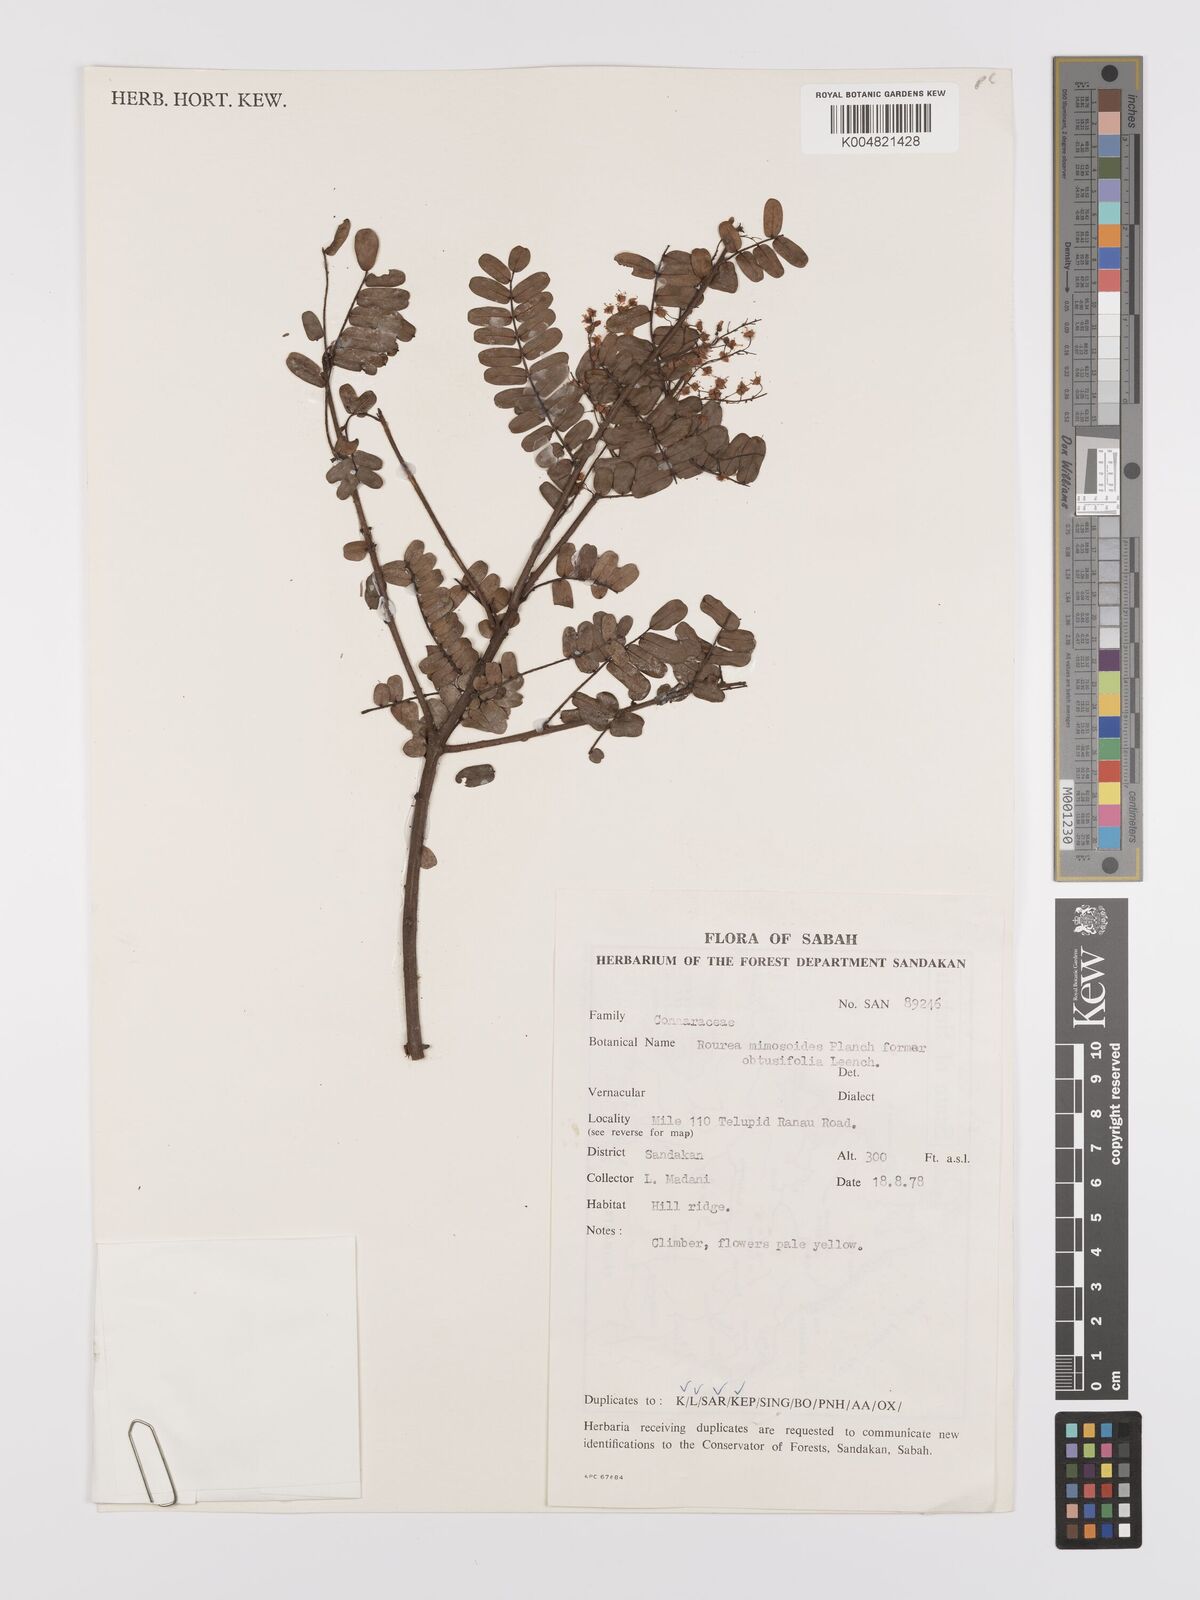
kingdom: Plantae
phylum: Tracheophyta
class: Magnoliopsida
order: Oxalidales
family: Connaraceae
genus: Rourea
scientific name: Rourea mimosoides
